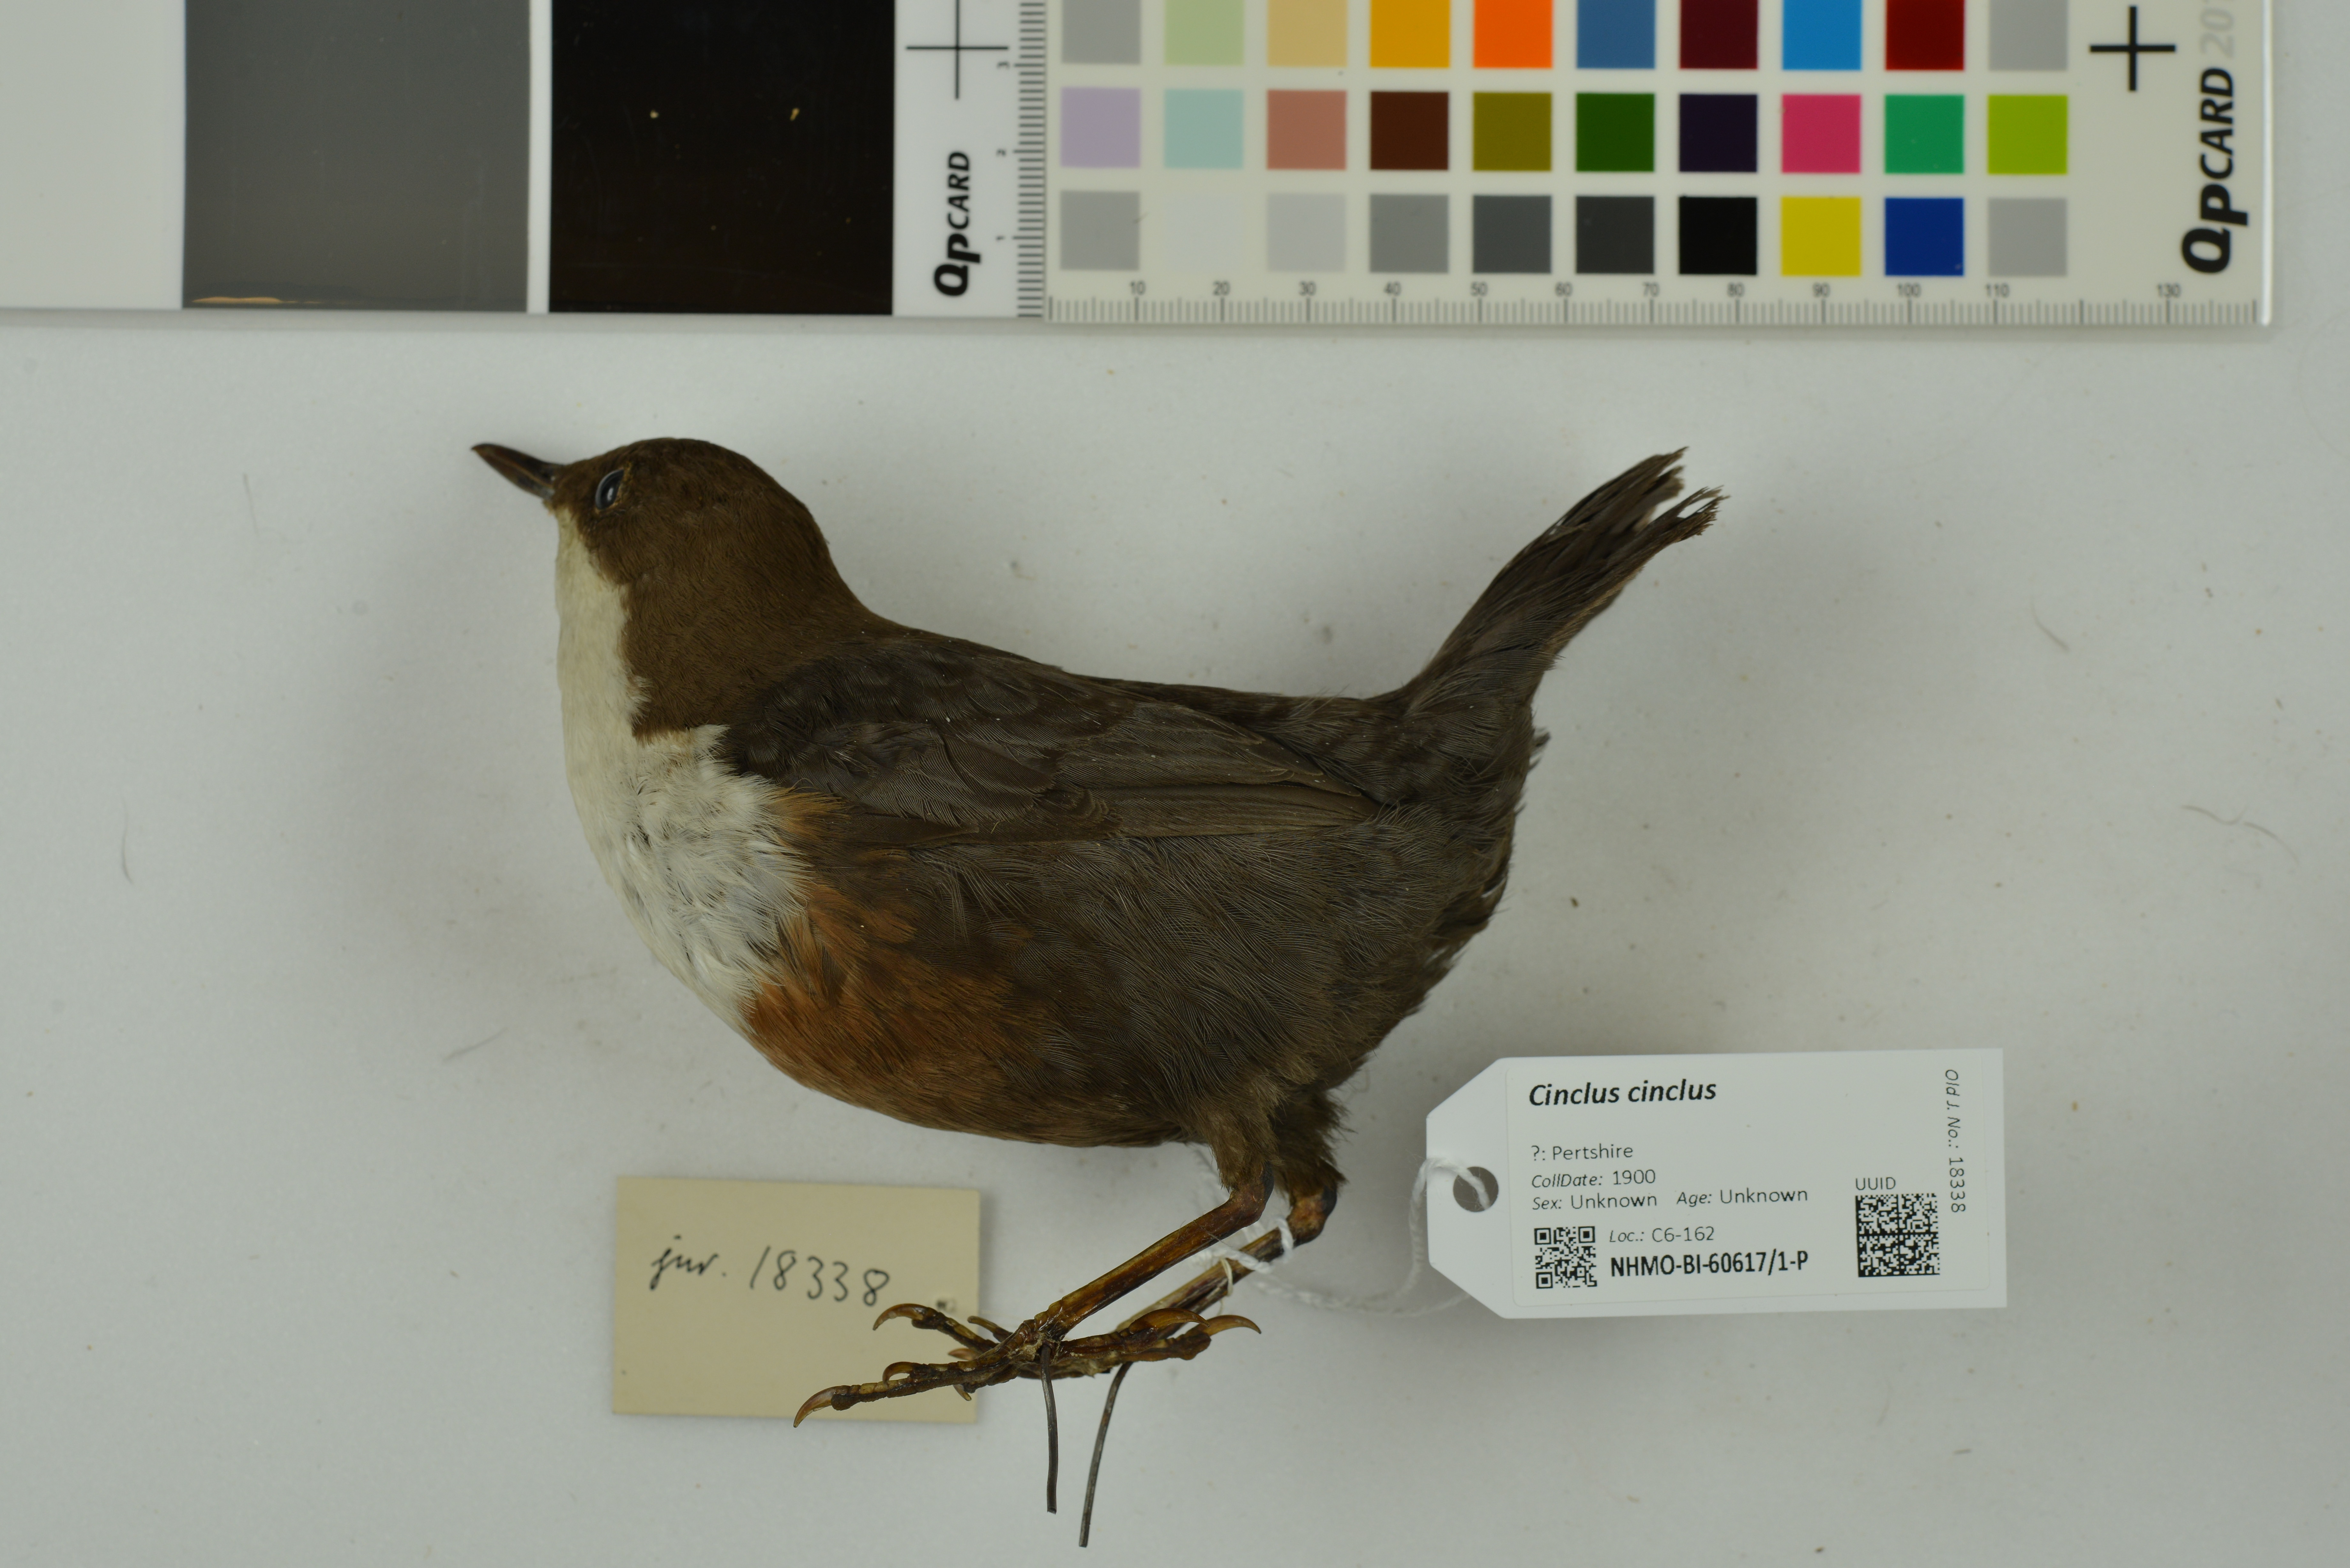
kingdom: Animalia
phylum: Chordata
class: Aves
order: Passeriformes
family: Cinclidae
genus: Cinclus
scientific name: Cinclus cinclus
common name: White-throated dipper
